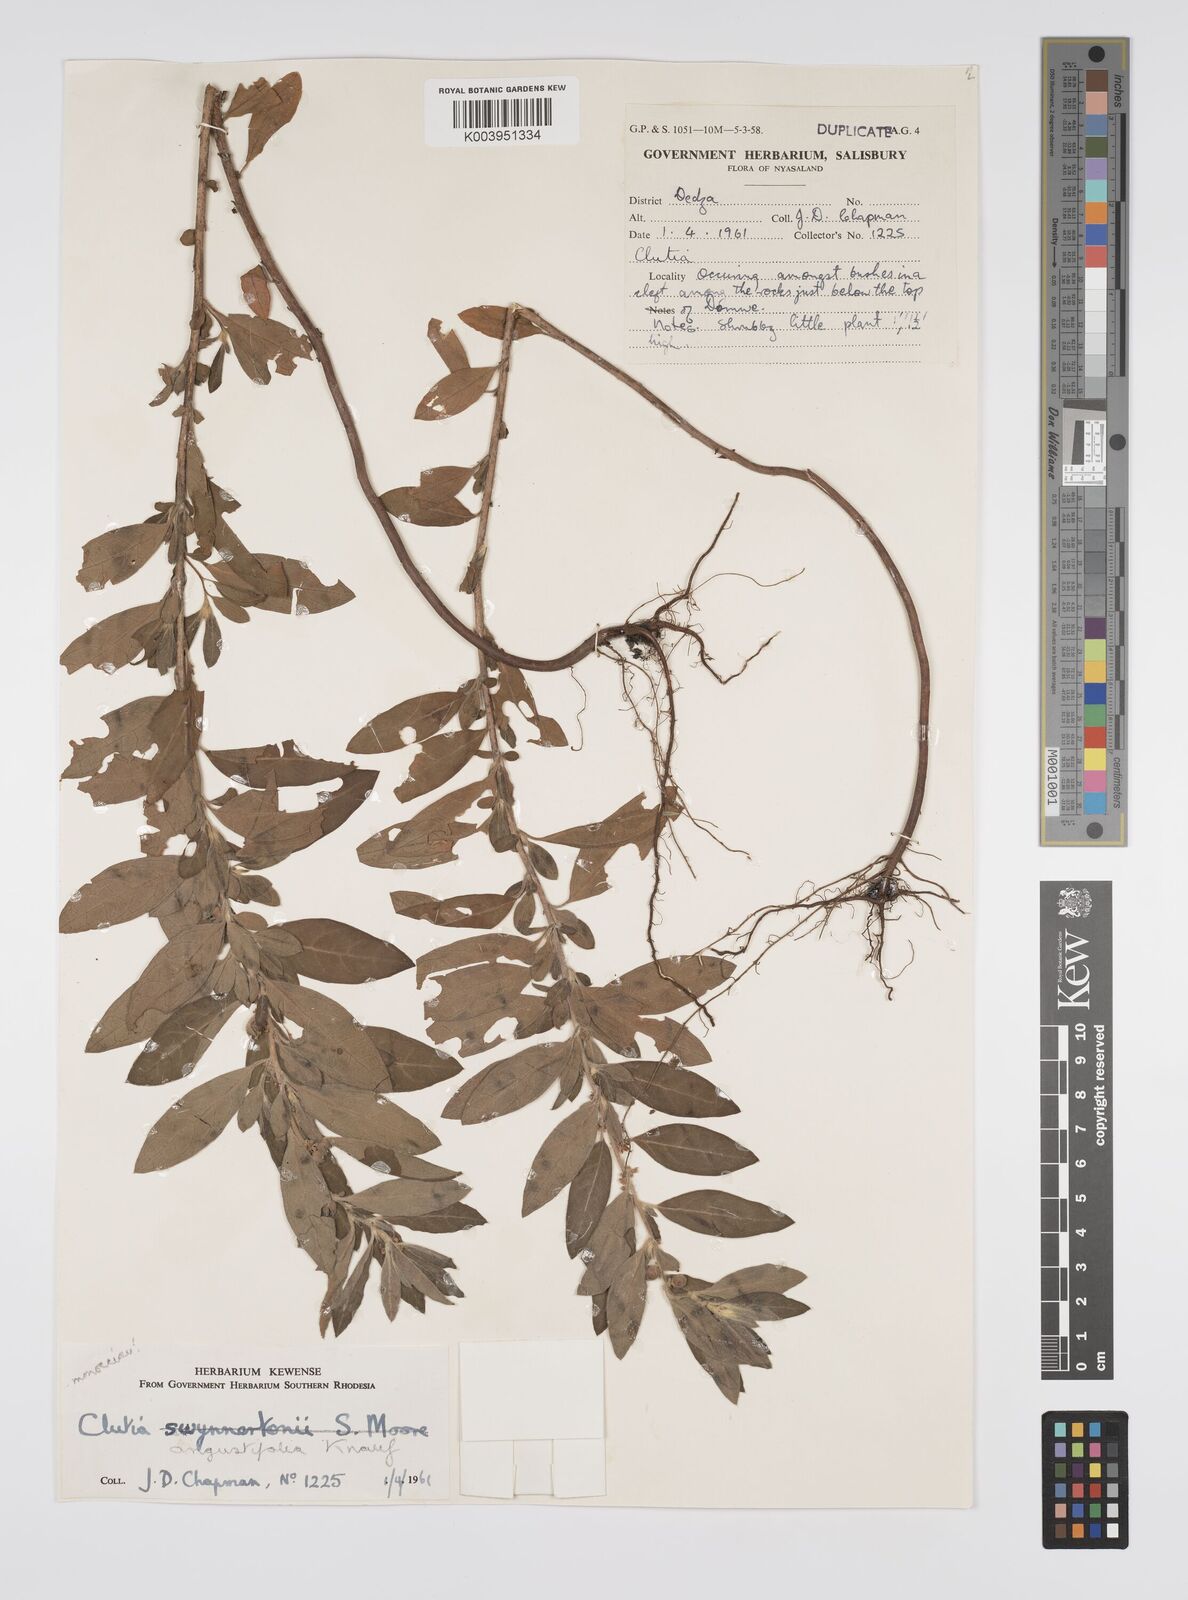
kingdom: Plantae
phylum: Tracheophyta
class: Magnoliopsida
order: Malpighiales
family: Peraceae
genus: Clutia
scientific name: Clutia angustifolia
